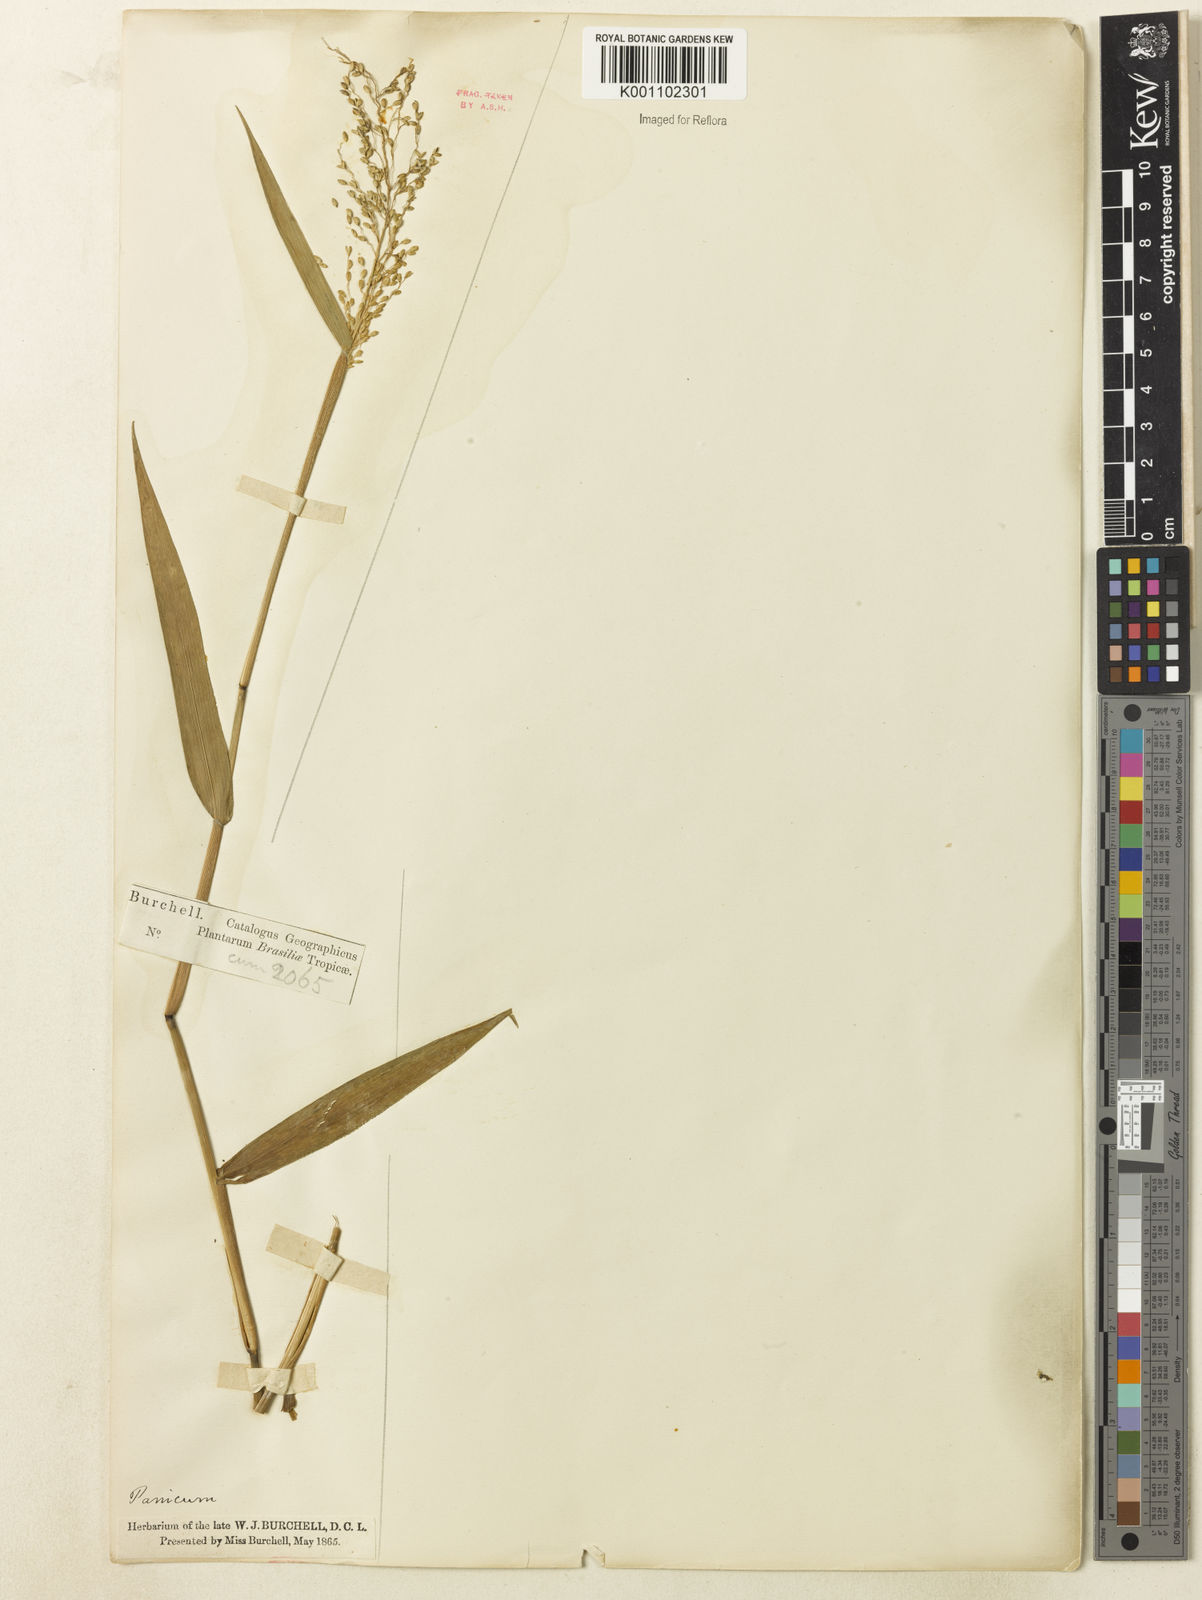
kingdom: Plantae
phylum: Tracheophyta
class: Liliopsida
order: Poales
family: Poaceae
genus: Dichanthelium
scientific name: Dichanthelium stigmosum
